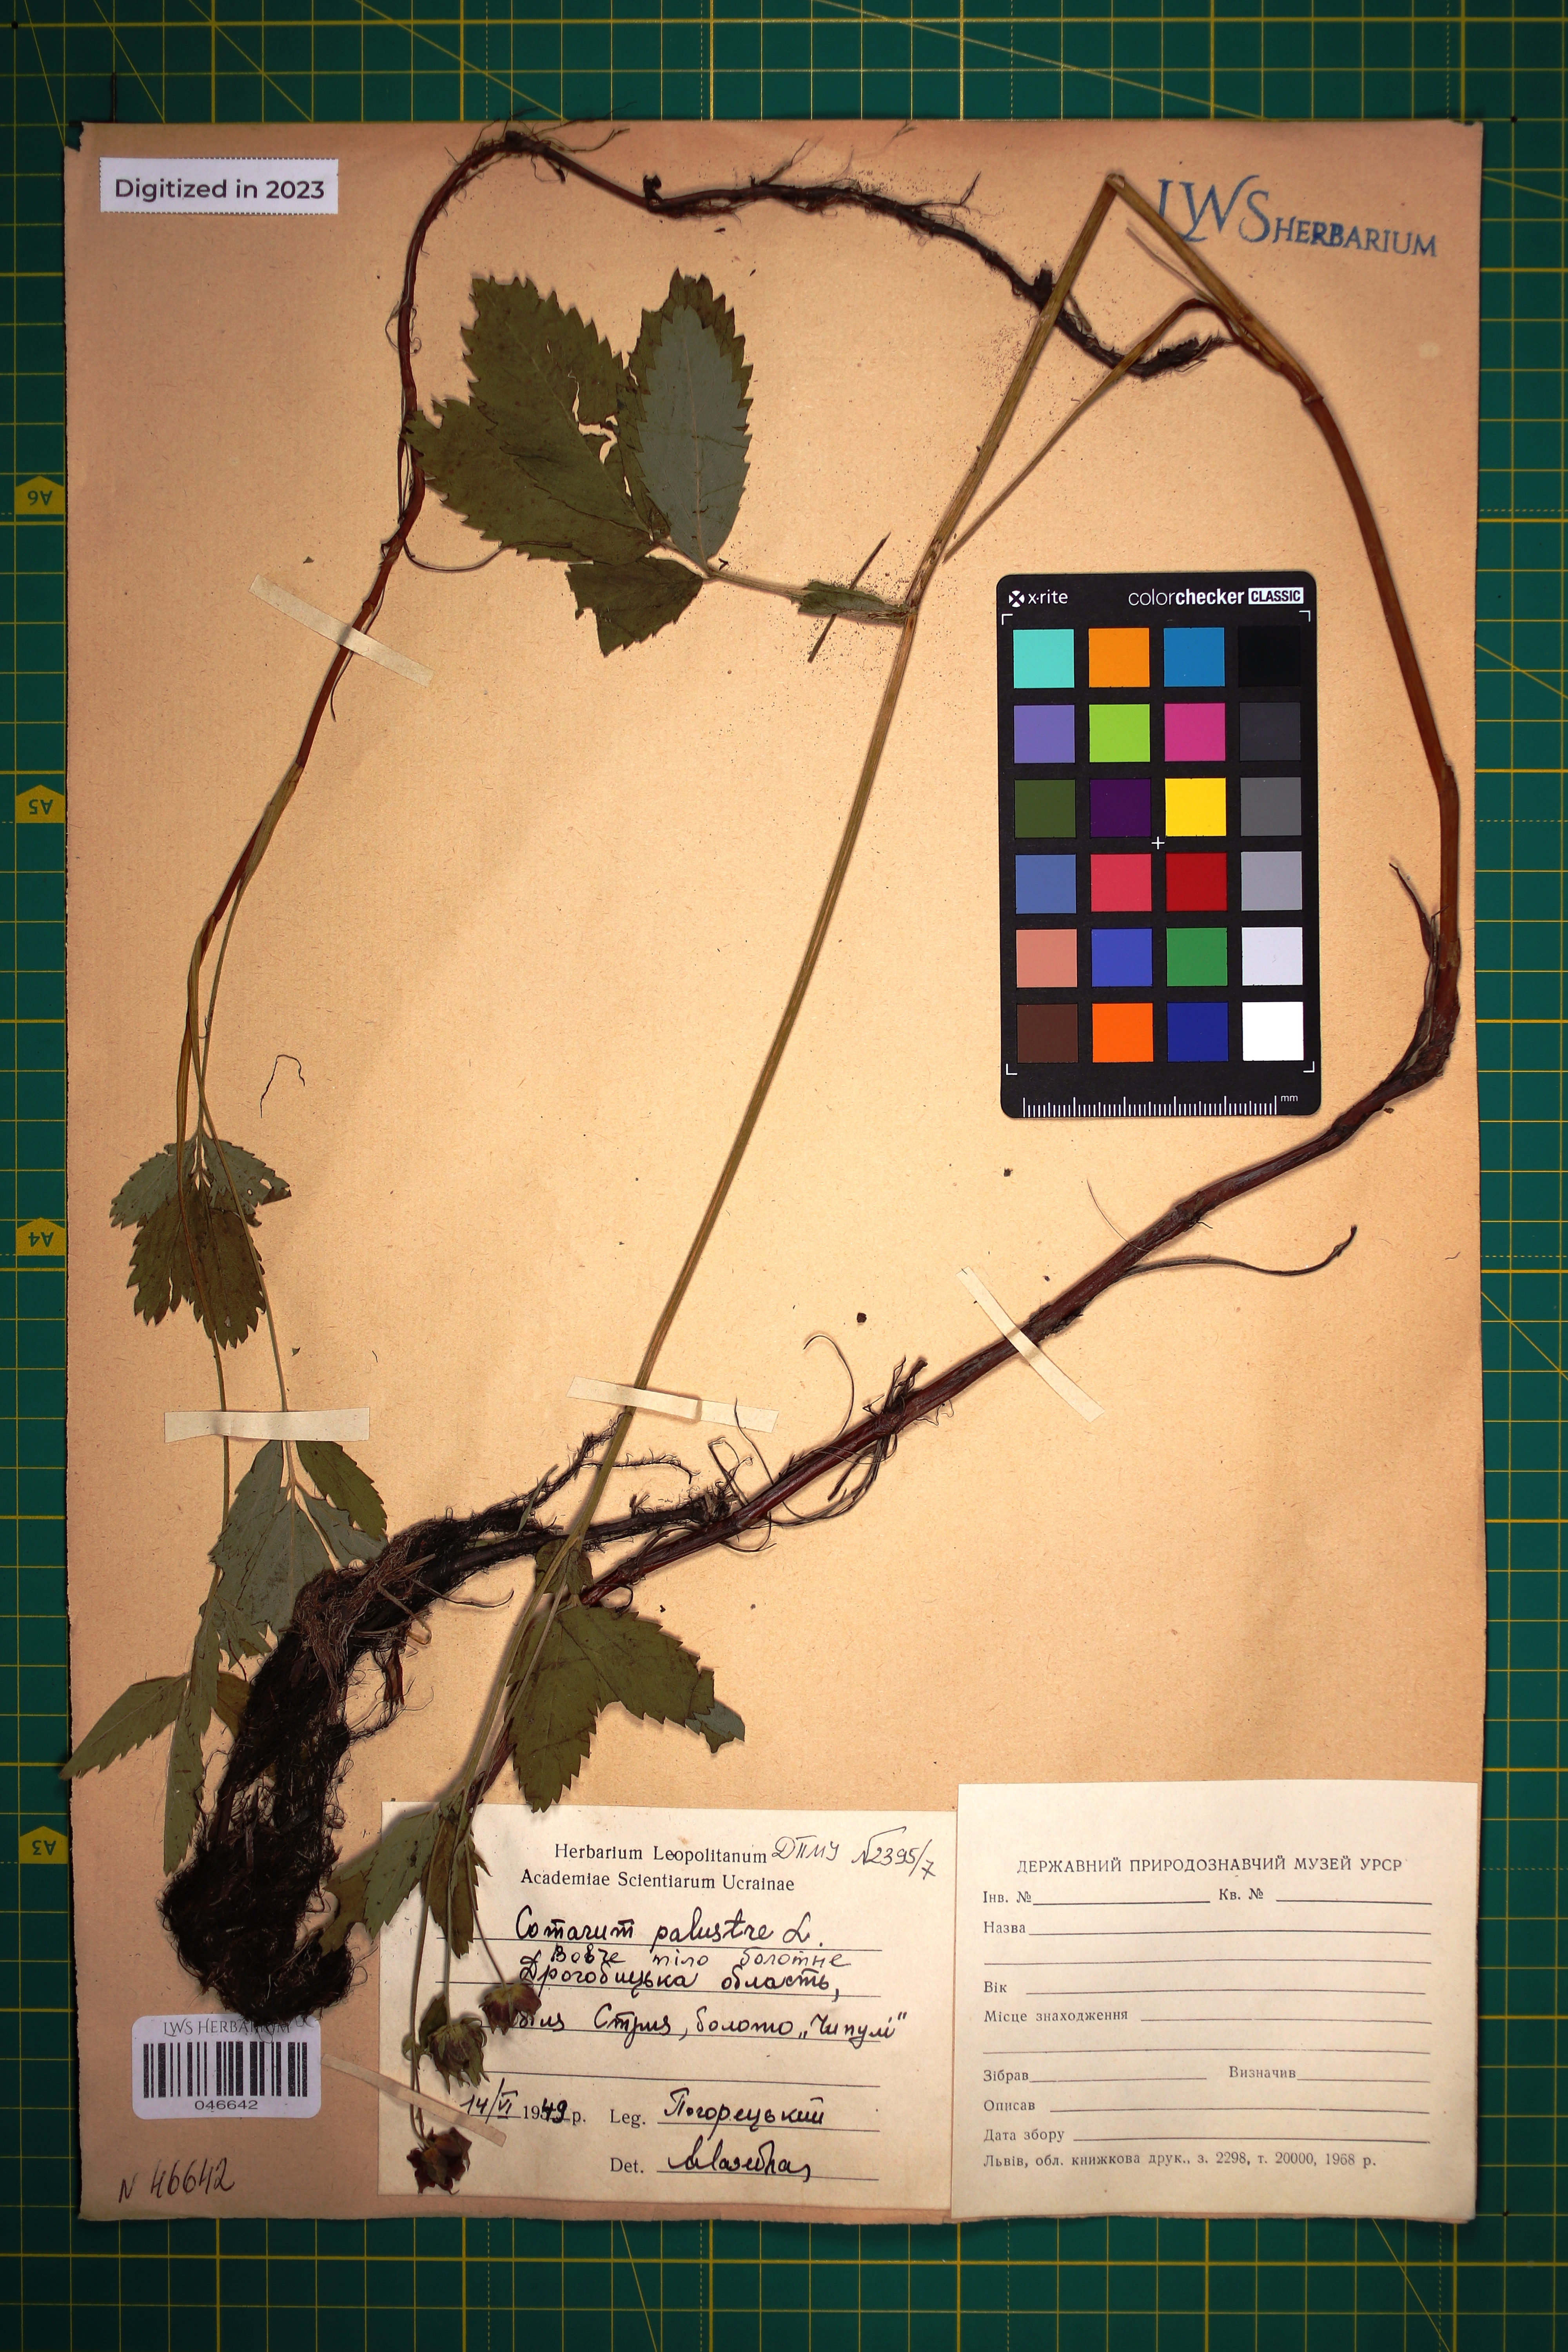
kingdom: Plantae
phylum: Tracheophyta
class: Magnoliopsida
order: Rosales
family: Rosaceae
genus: Comarum
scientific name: Comarum palustre
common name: Marsh cinquefoil
